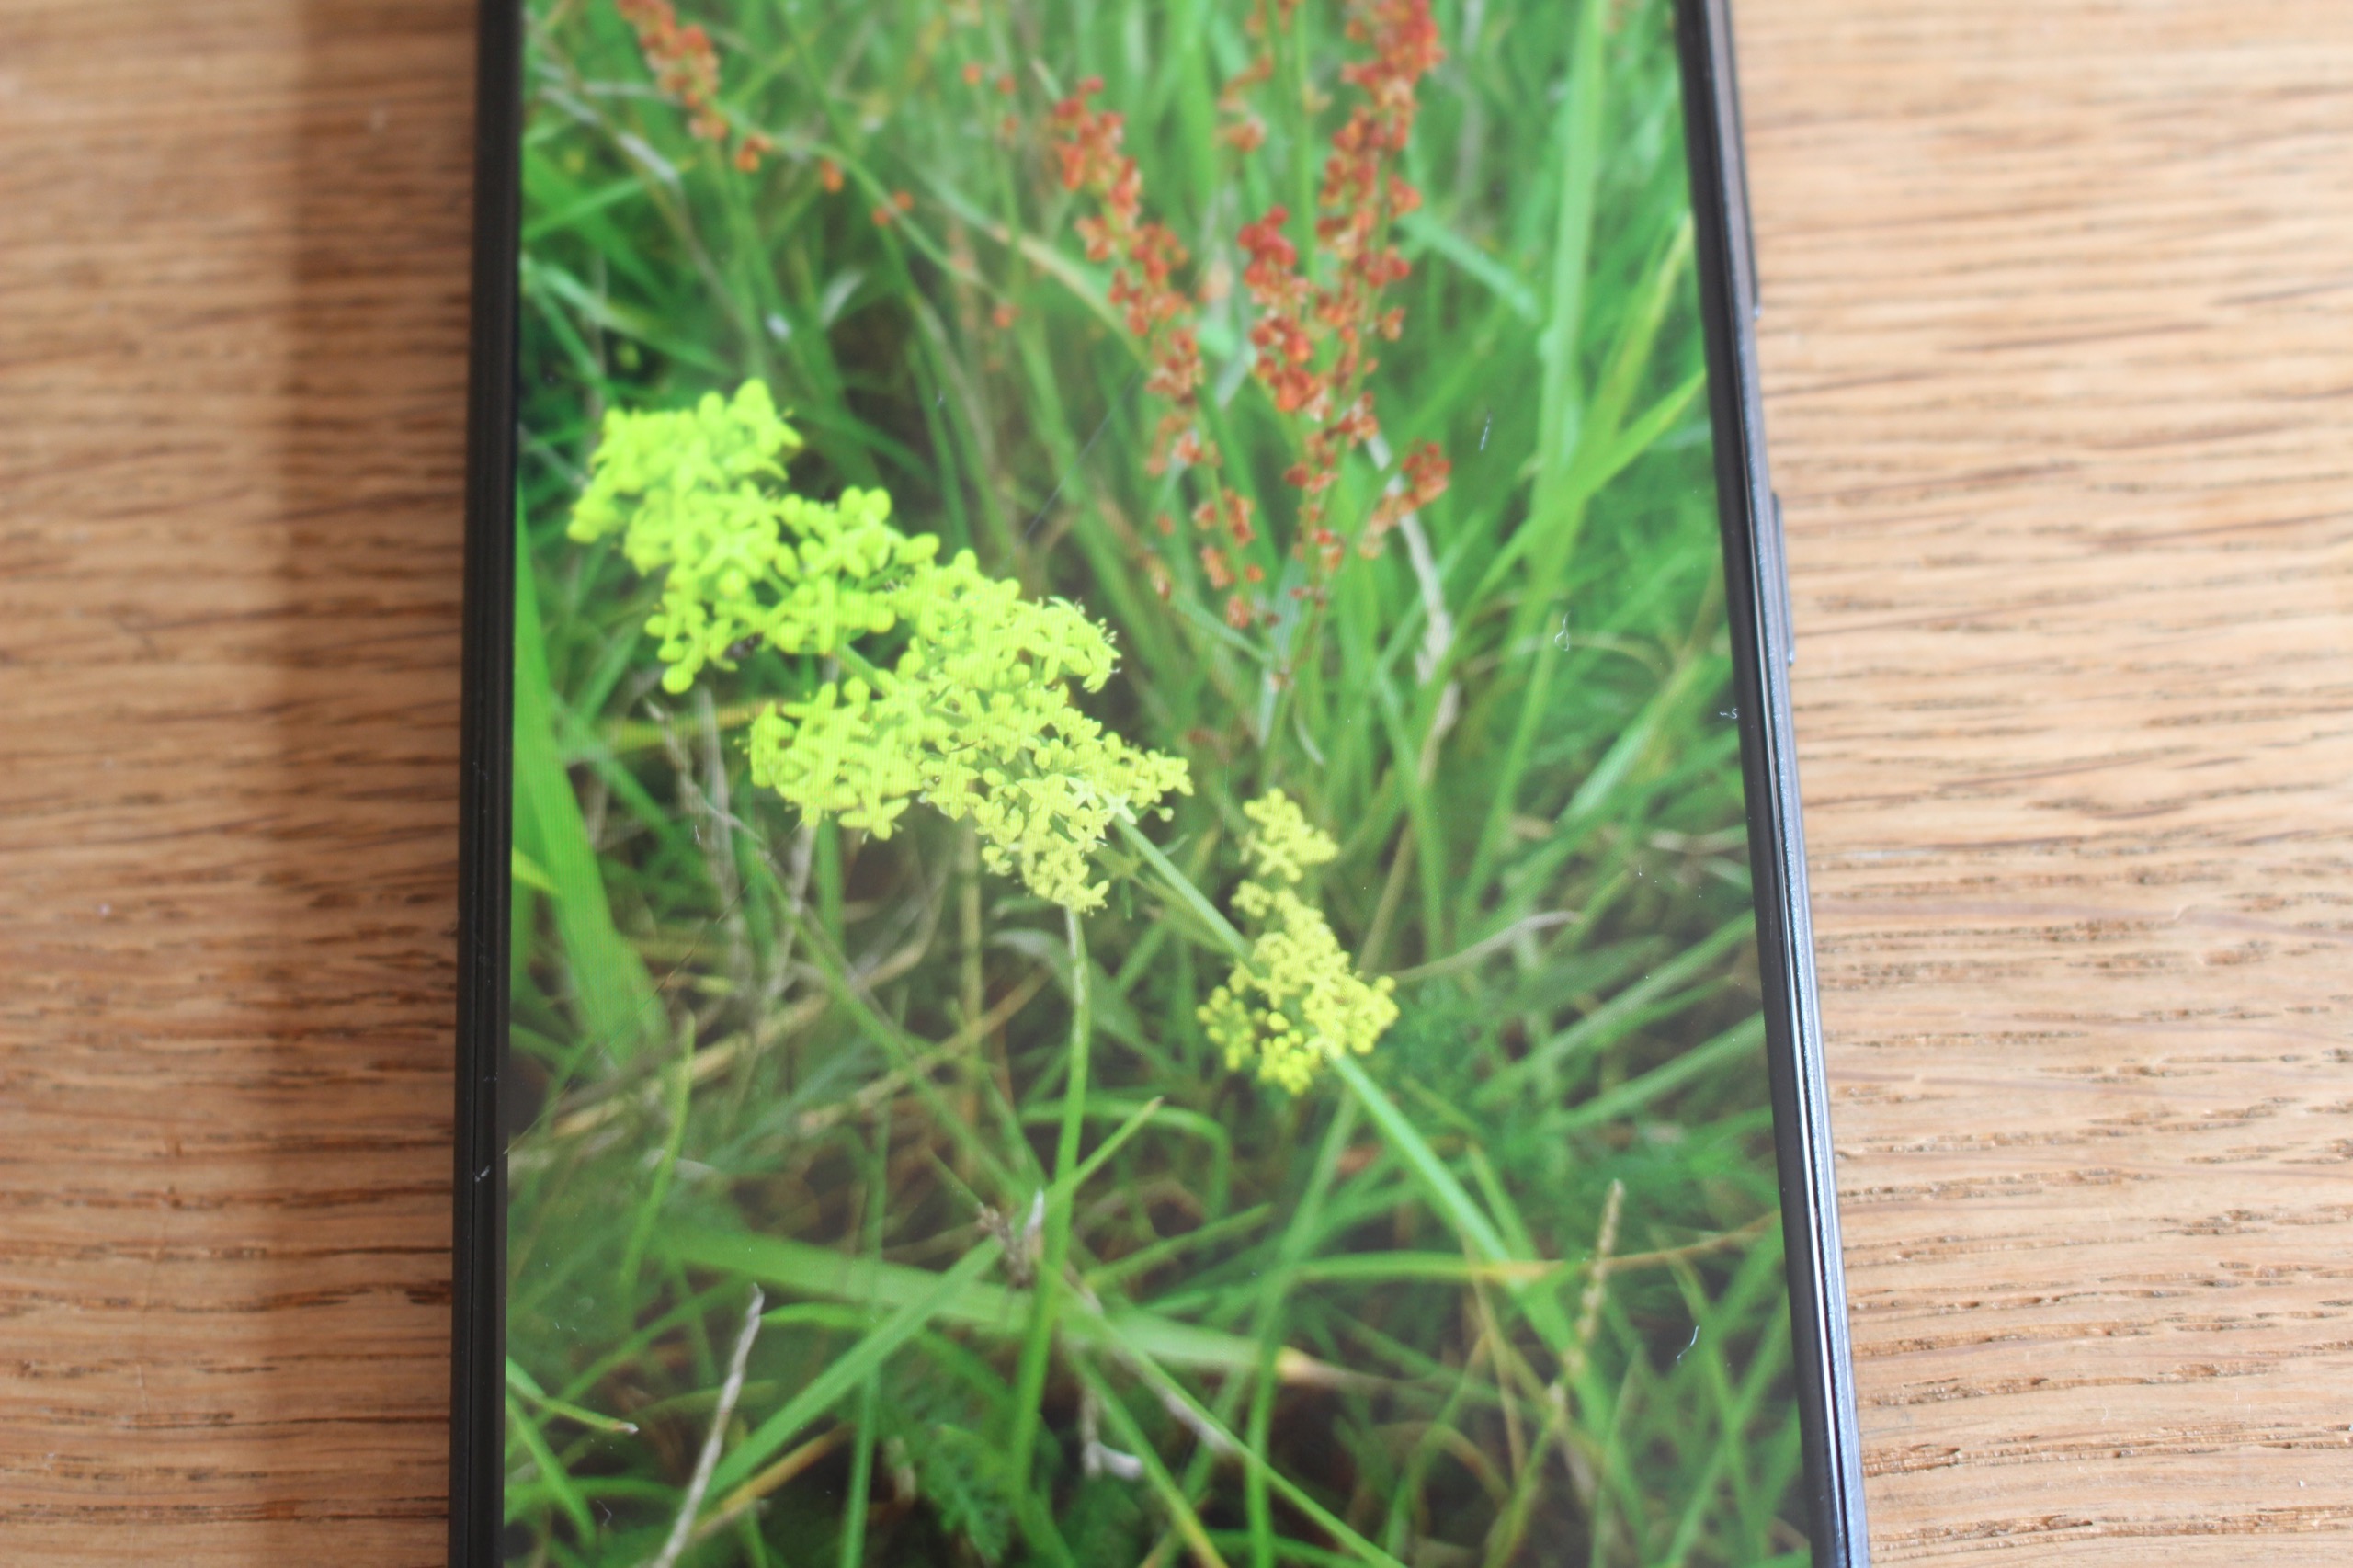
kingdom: Plantae
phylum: Tracheophyta
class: Magnoliopsida
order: Gentianales
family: Rubiaceae
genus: Galium
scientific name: Galium
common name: Hvidgul snerre
